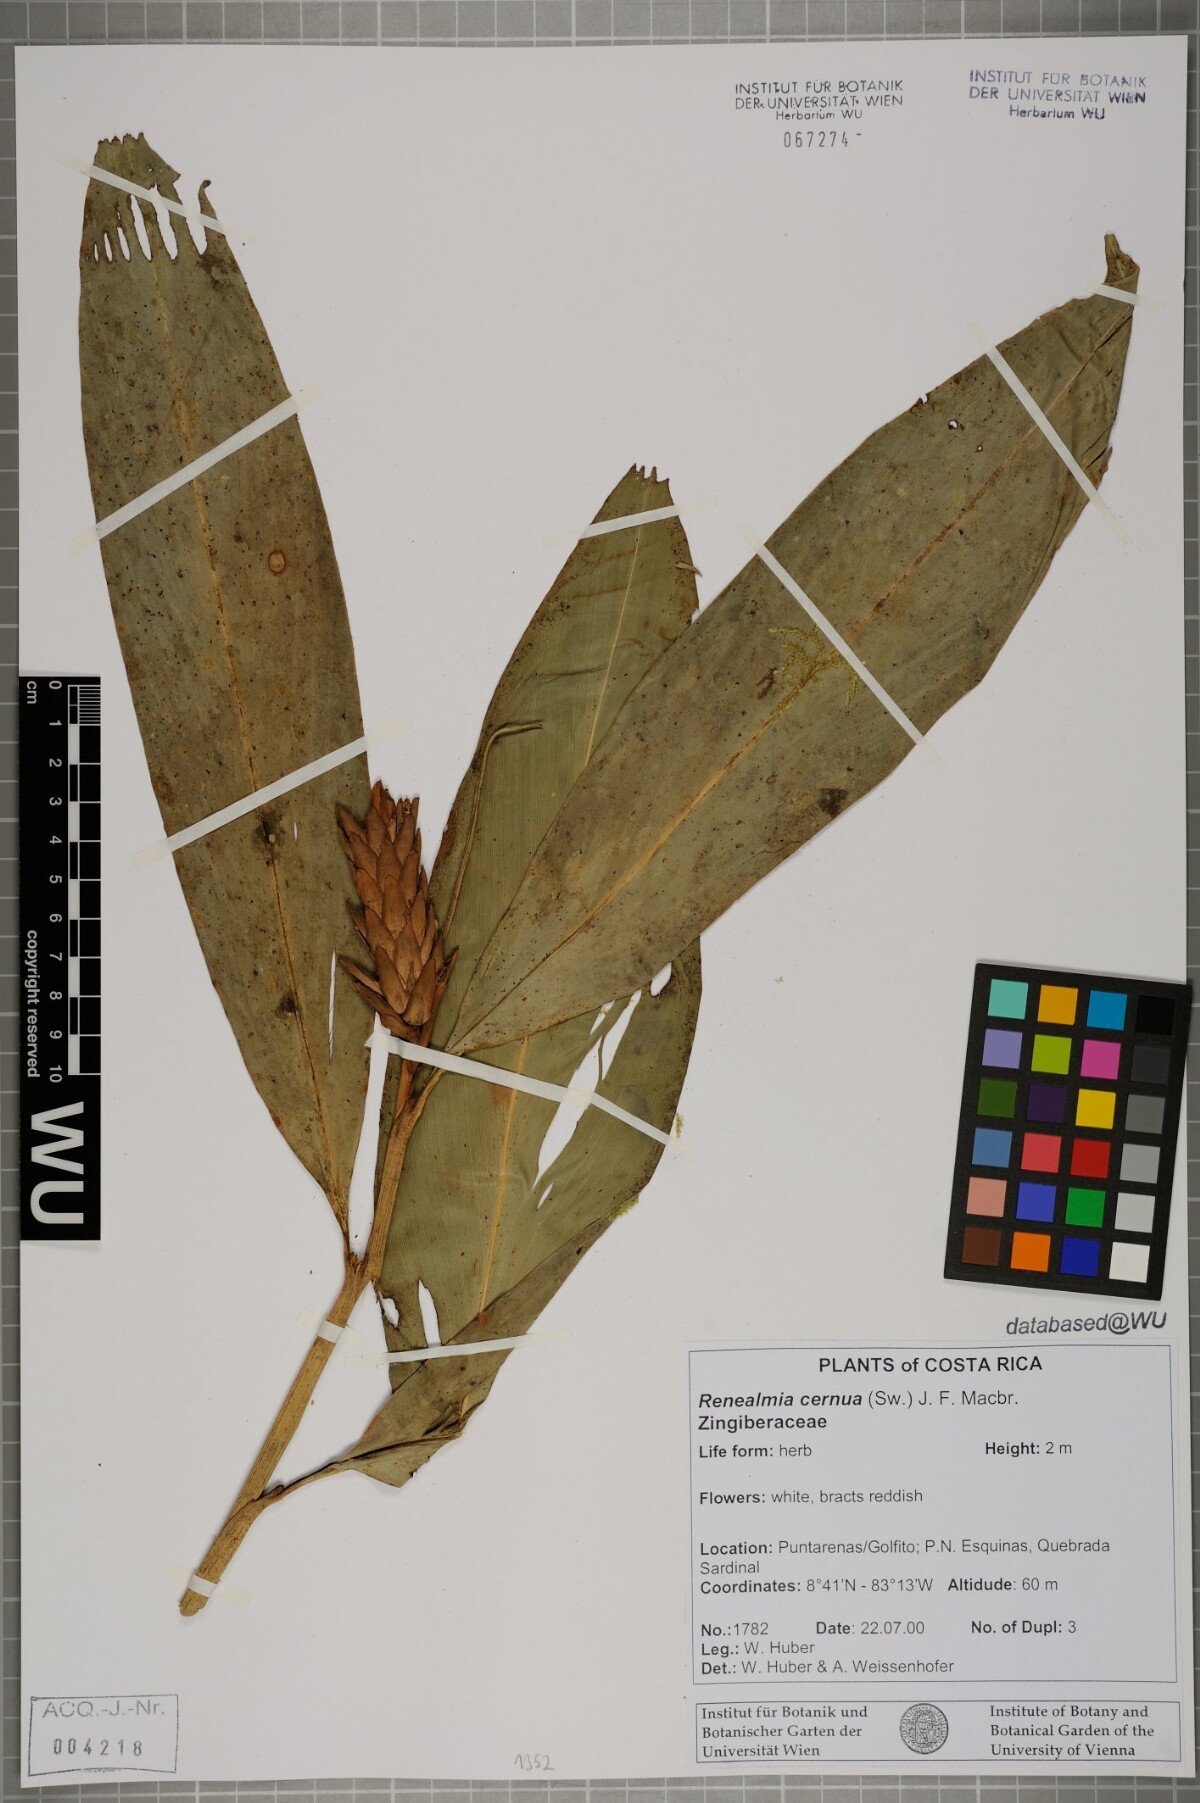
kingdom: Plantae
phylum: Tracheophyta
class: Liliopsida
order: Zingiberales
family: Zingiberaceae
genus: Renealmia
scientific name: Renealmia cernua
